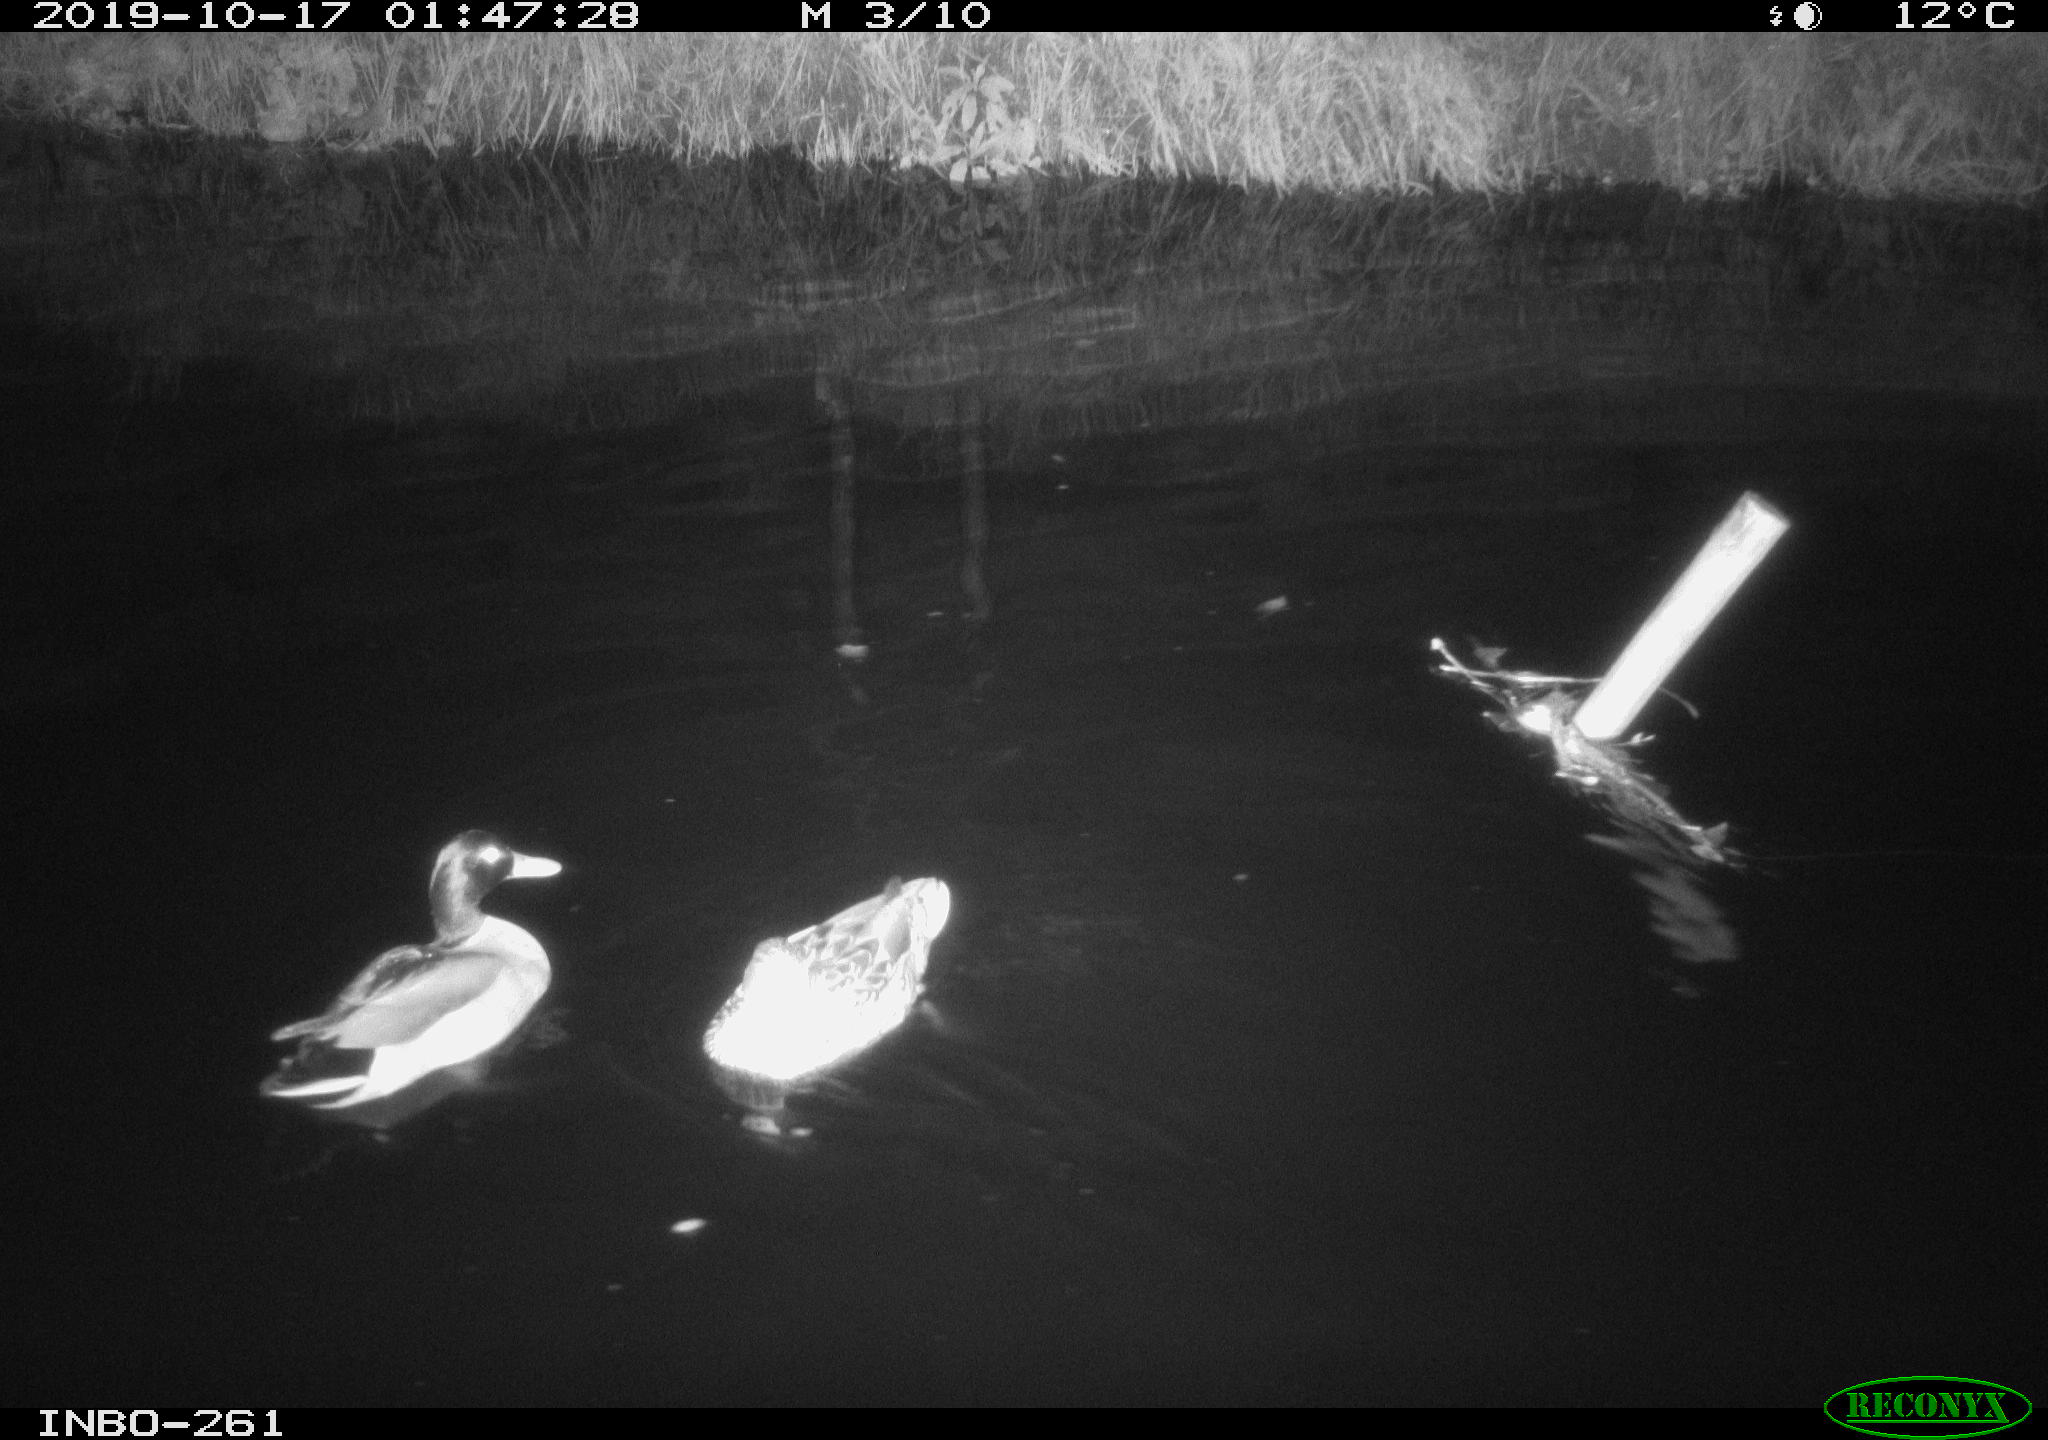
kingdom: Animalia
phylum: Chordata
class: Aves
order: Anseriformes
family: Anatidae
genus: Anas
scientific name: Anas platyrhynchos
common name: Mallard
